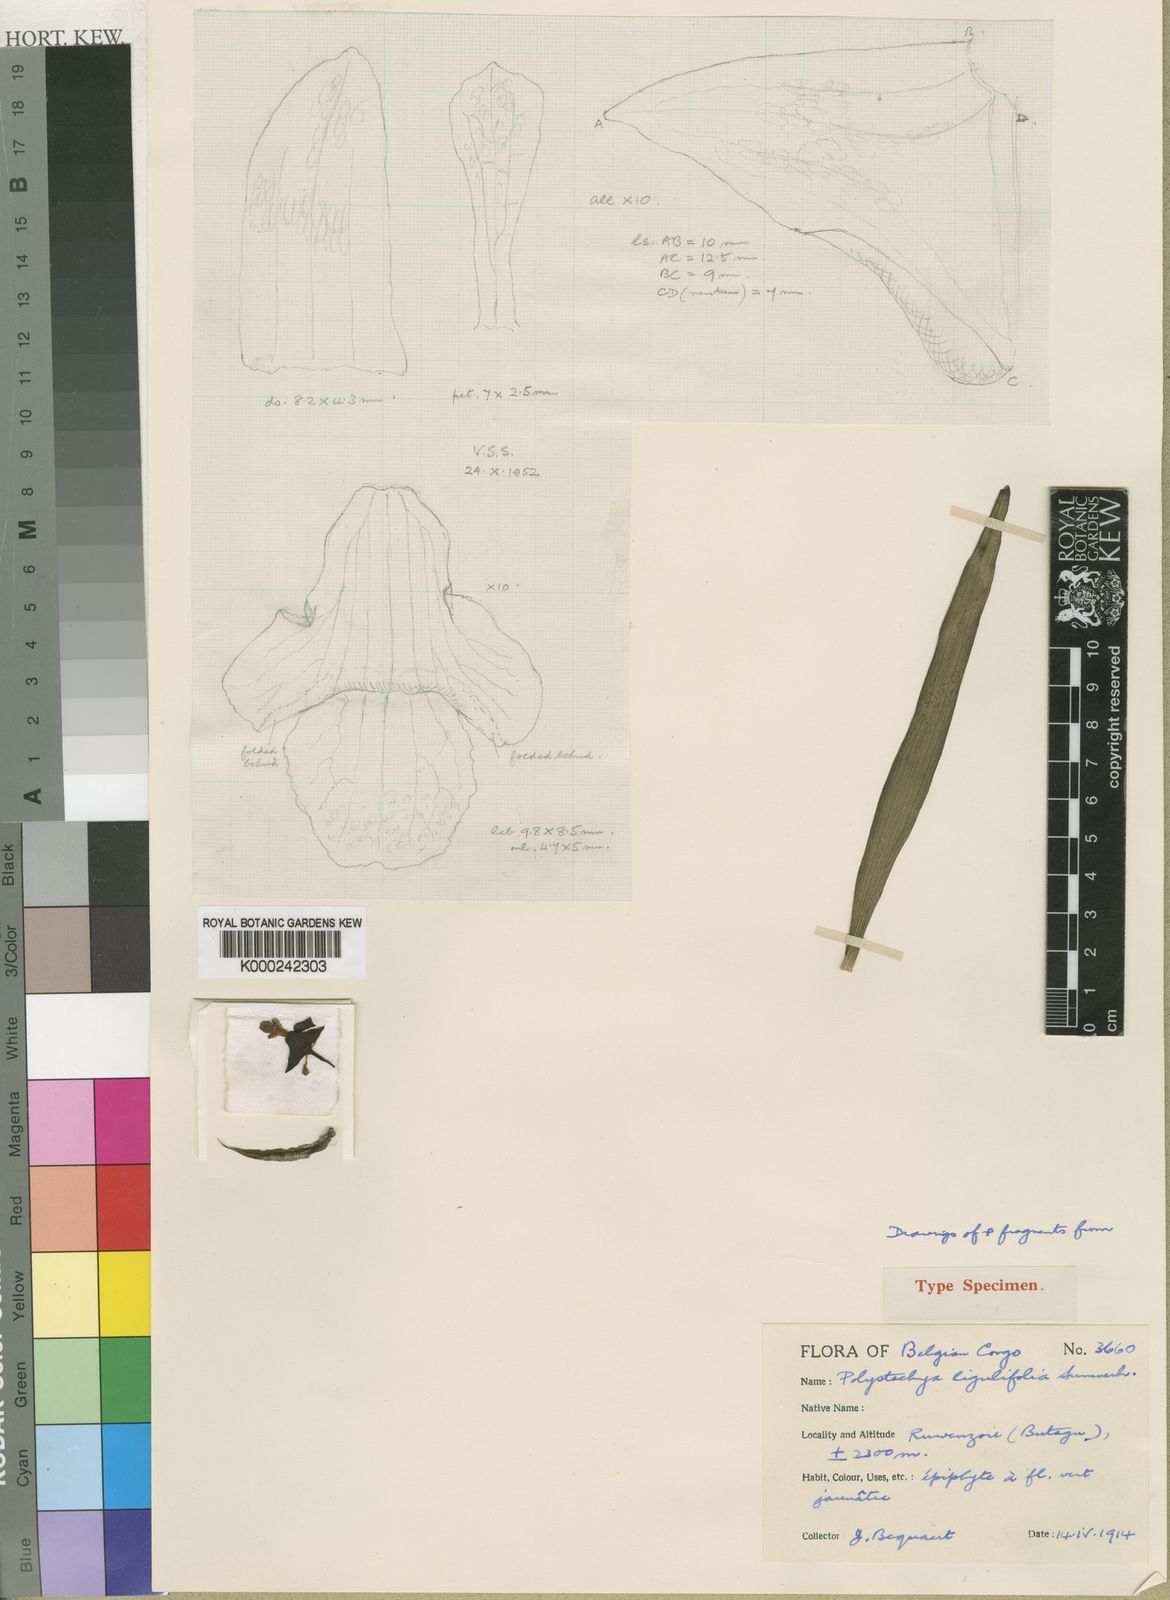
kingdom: Plantae
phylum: Tracheophyta
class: Liliopsida
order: Asparagales
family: Orchidaceae
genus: Polystachya
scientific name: Polystachya ligulifolia
